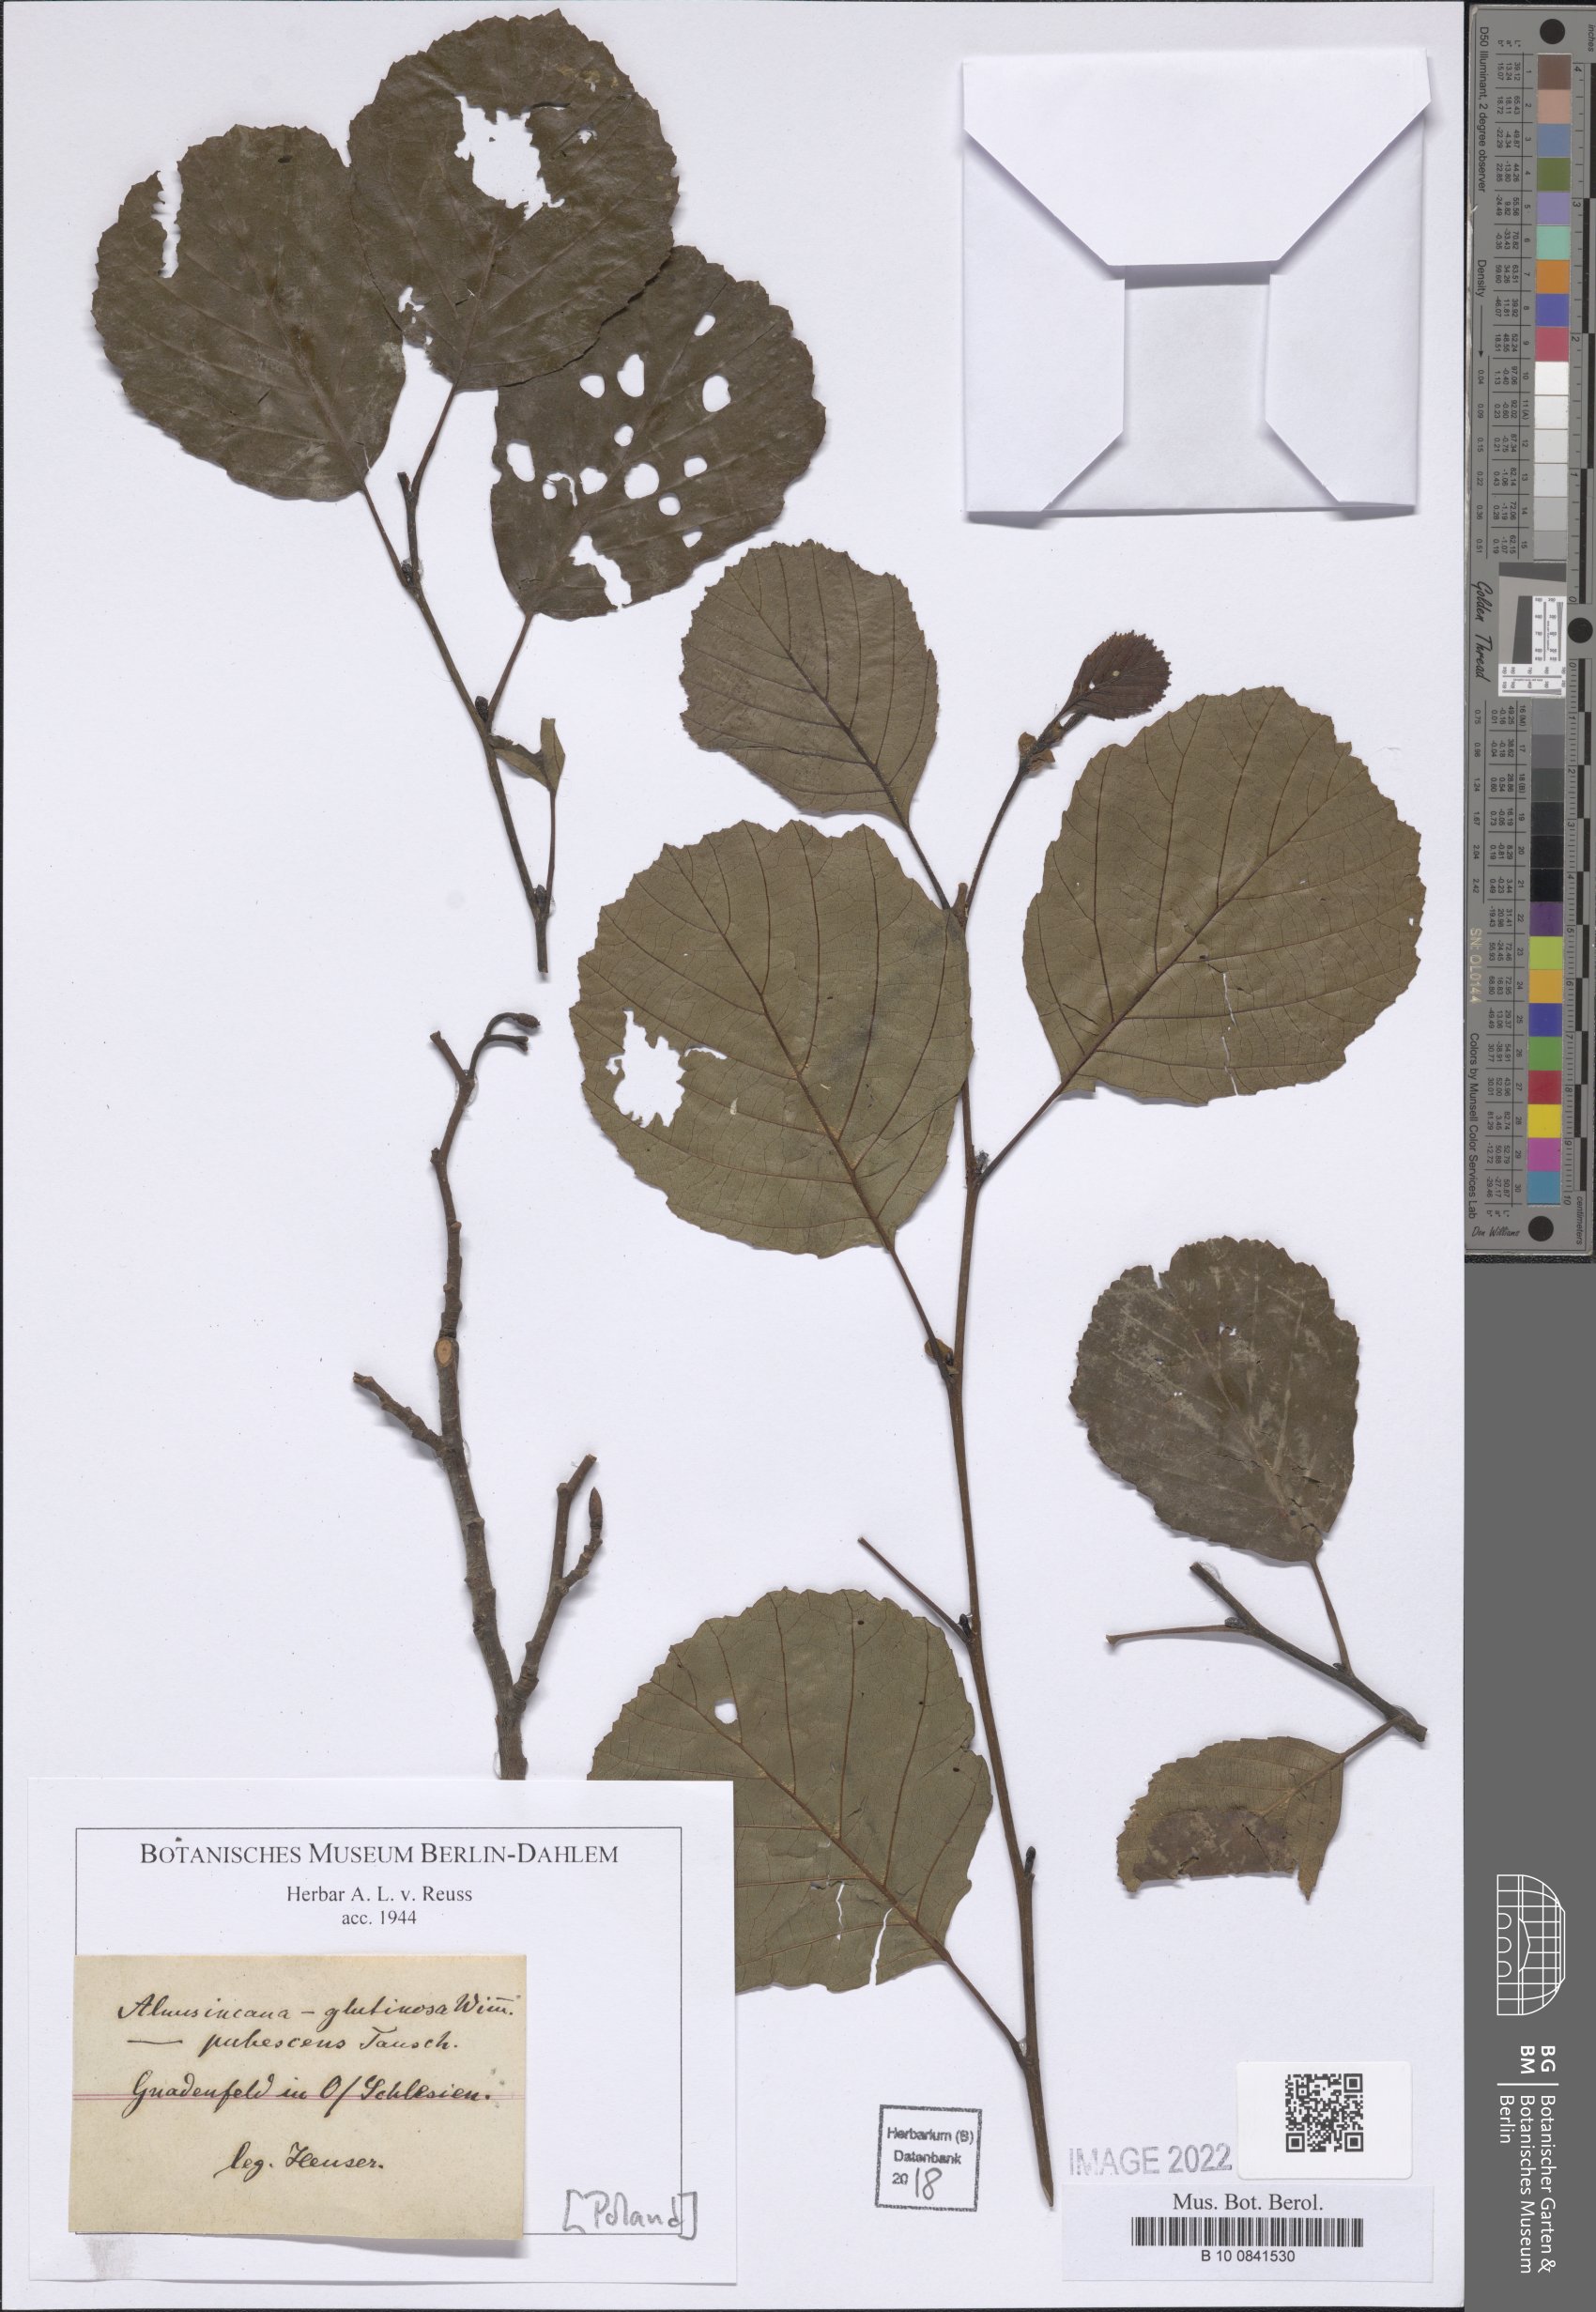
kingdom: Plantae
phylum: Tracheophyta
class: Magnoliopsida
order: Fagales
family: Betulaceae
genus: Alnus
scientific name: Alnus pubescens
